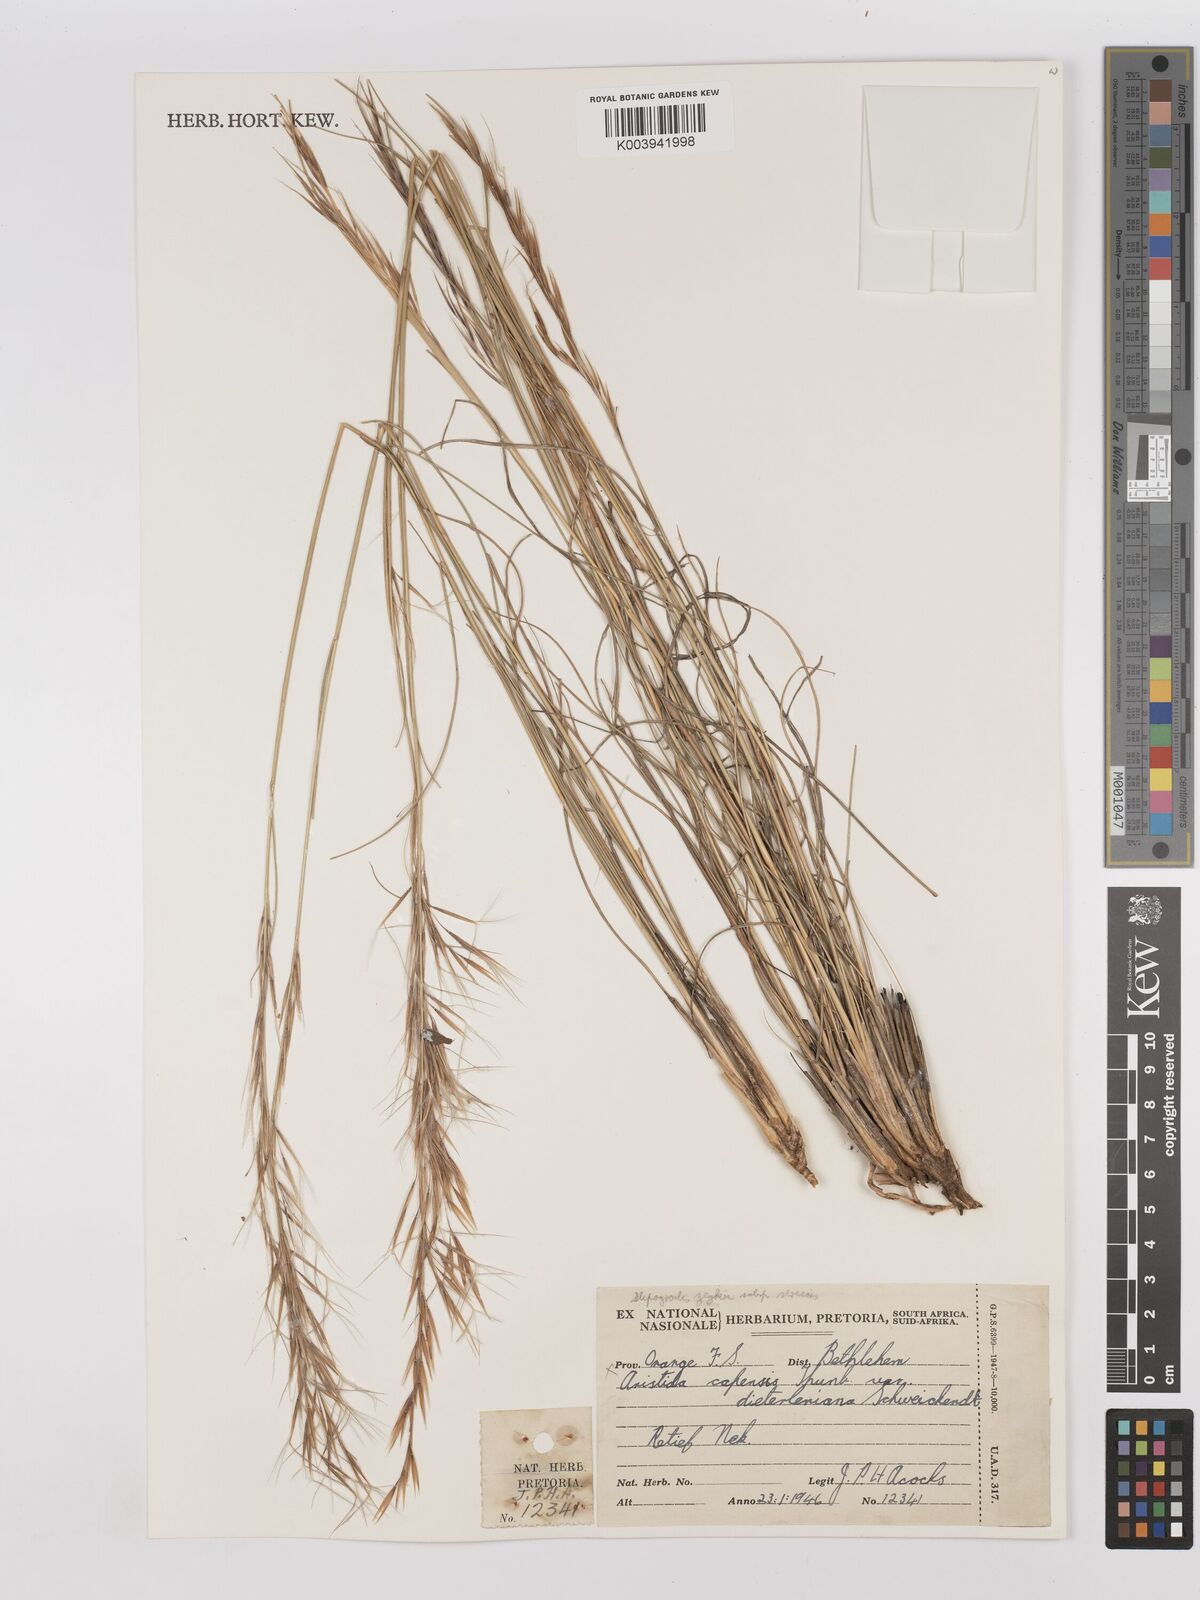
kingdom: Plantae
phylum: Tracheophyta
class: Liliopsida
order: Poales
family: Poaceae
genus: Stipagrostis
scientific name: Stipagrostis zeyheri
